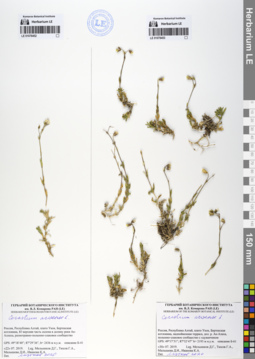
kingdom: Plantae
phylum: Tracheophyta
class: Magnoliopsida
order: Caryophyllales
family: Caryophyllaceae
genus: Cerastium
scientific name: Cerastium arvense
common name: Field mouse-ear
